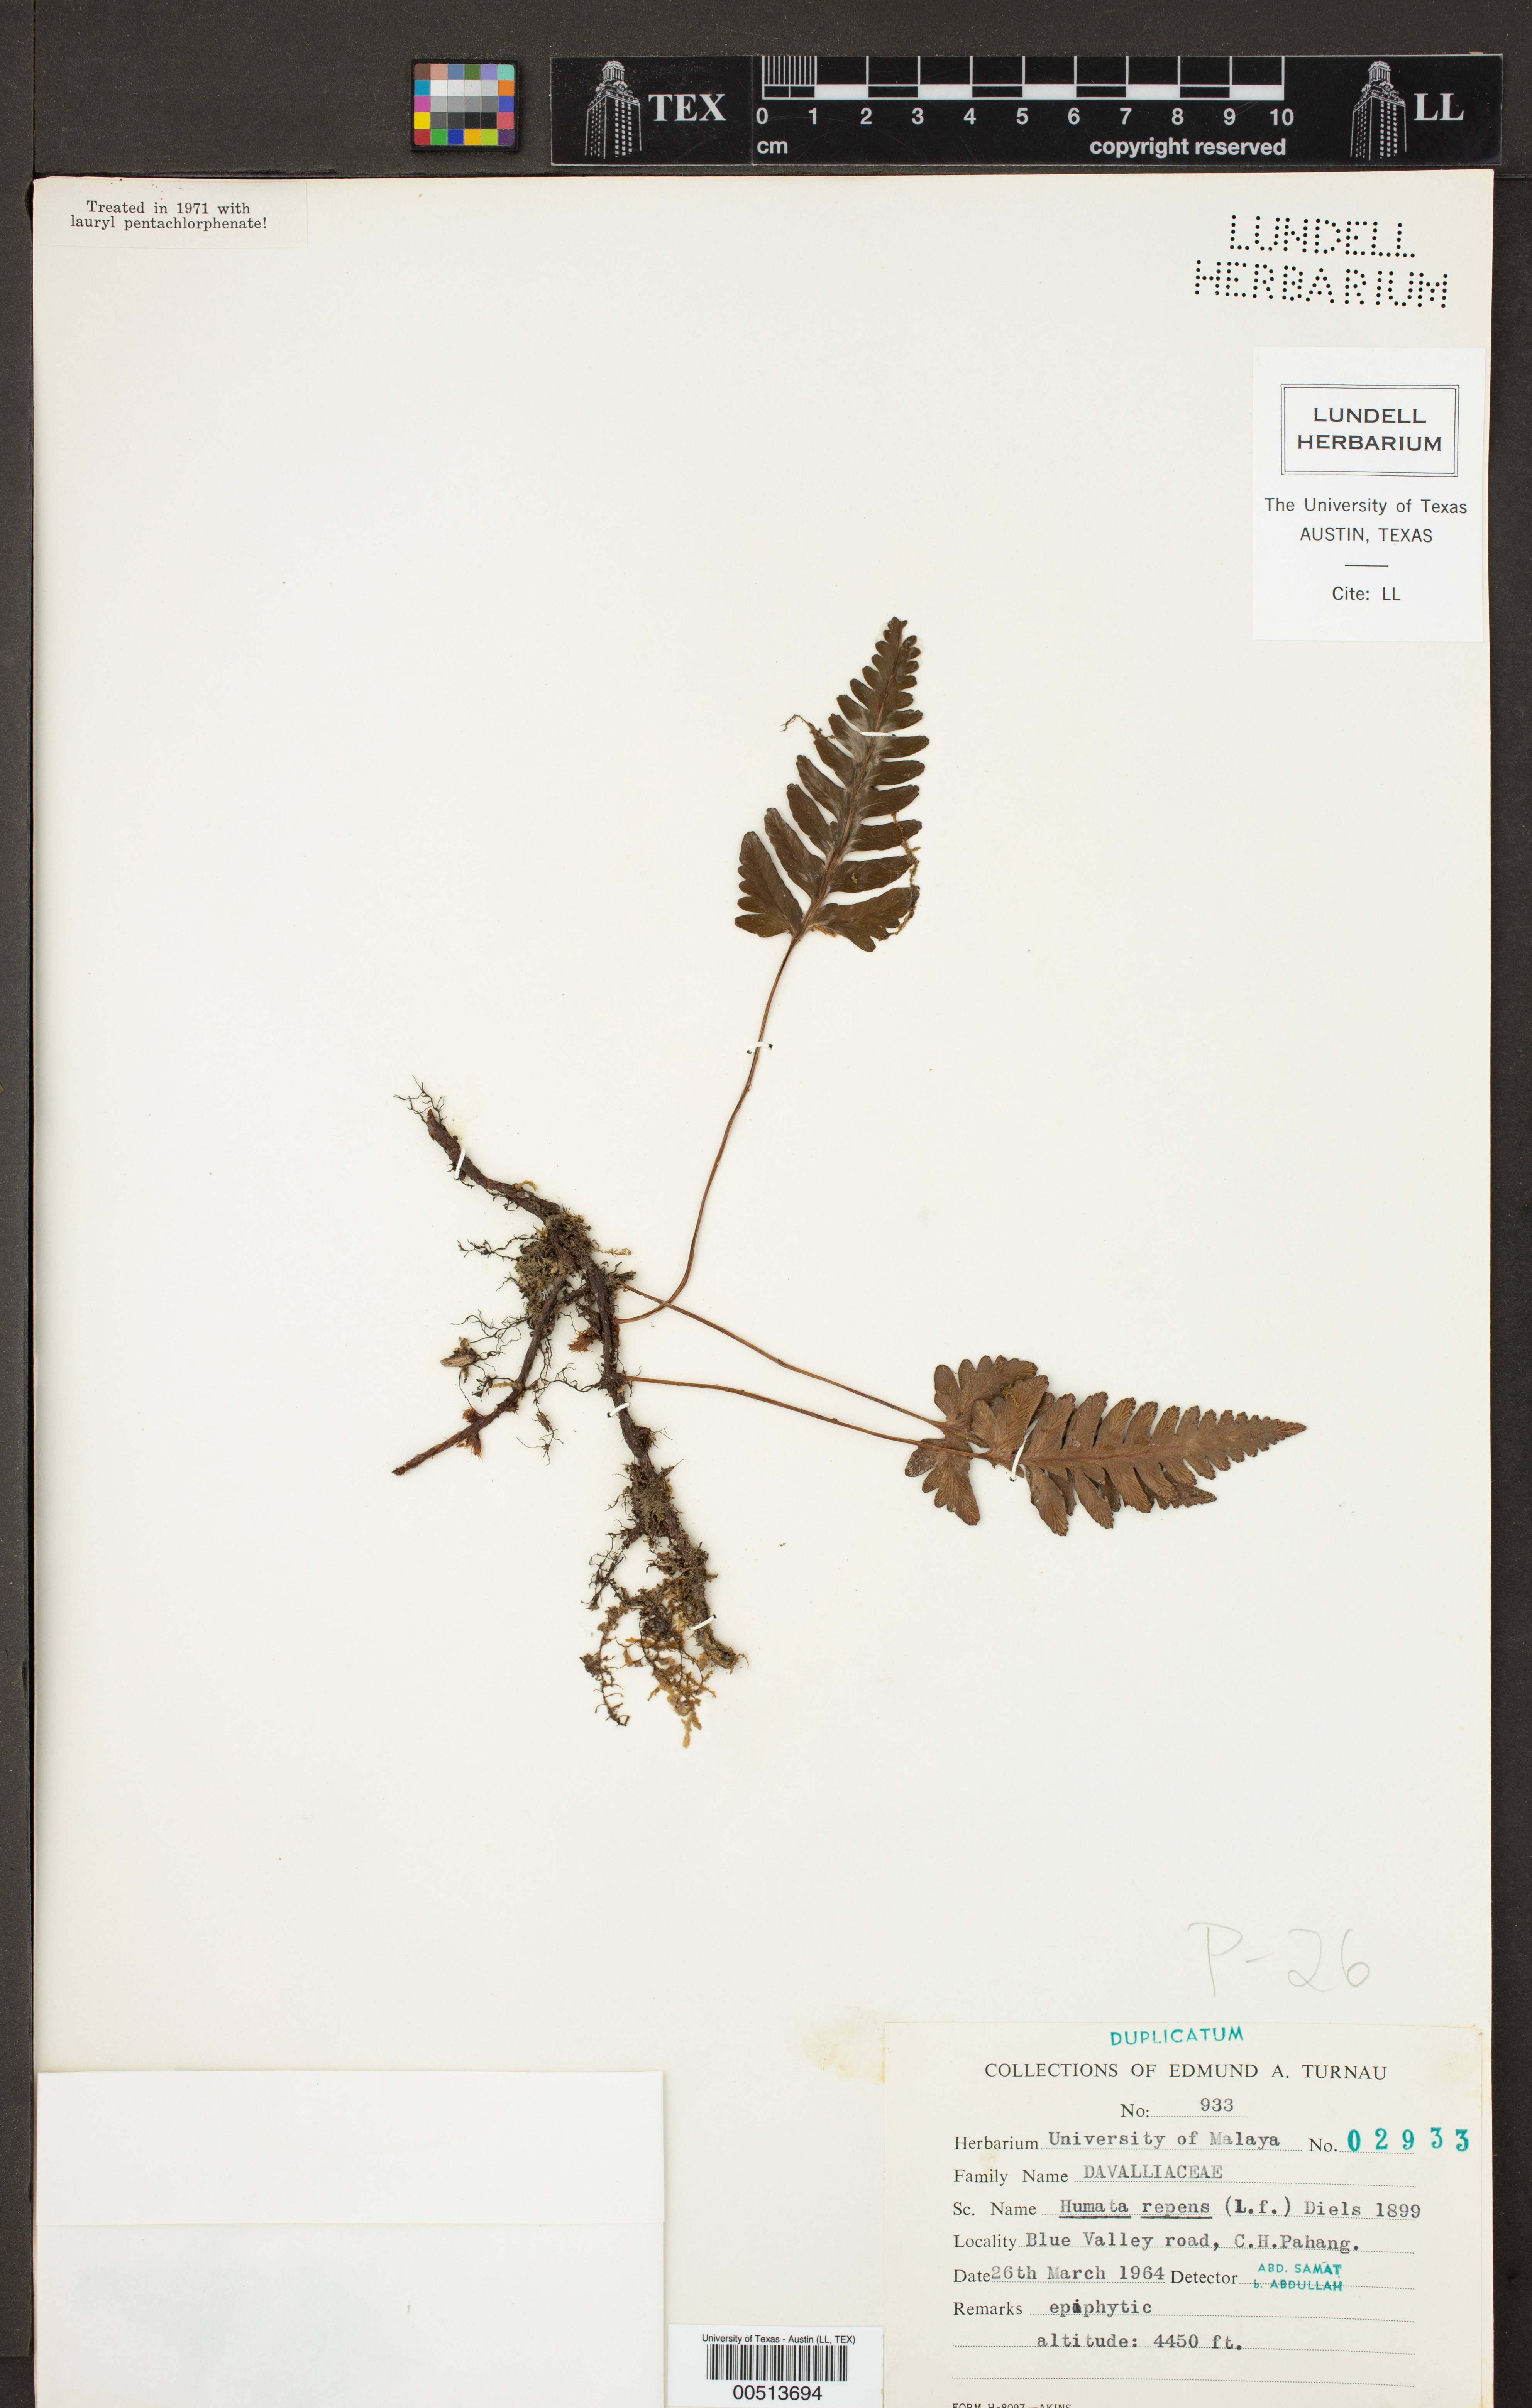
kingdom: Plantae
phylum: Tracheophyta
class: Polypodiopsida
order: Polypodiales
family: Davalliaceae
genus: Davallia
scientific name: Davallia repens
